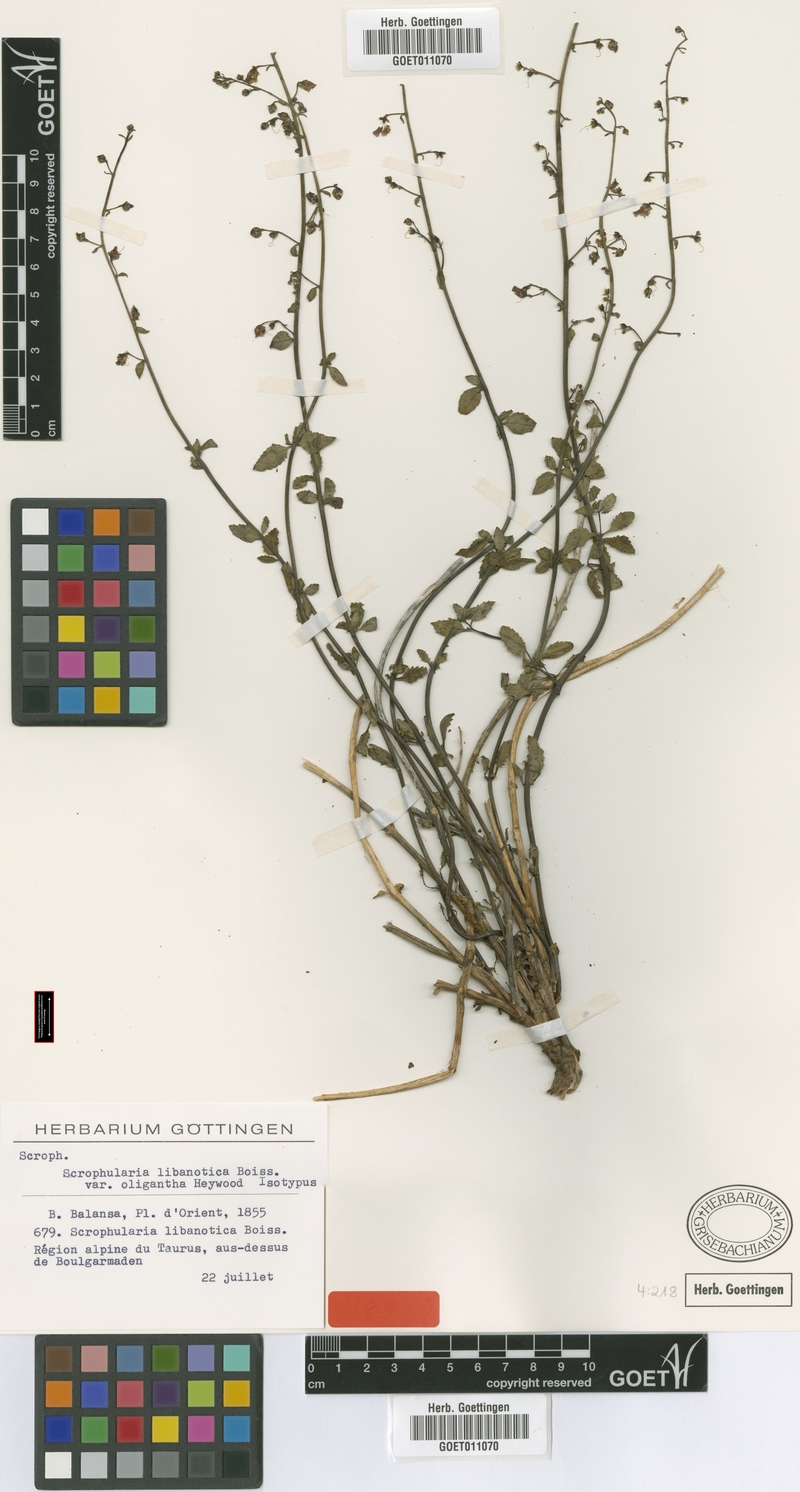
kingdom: Plantae
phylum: Tracheophyta
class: Magnoliopsida
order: Lamiales
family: Scrophulariaceae
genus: Scrophularia
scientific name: Scrophularia libanotica
